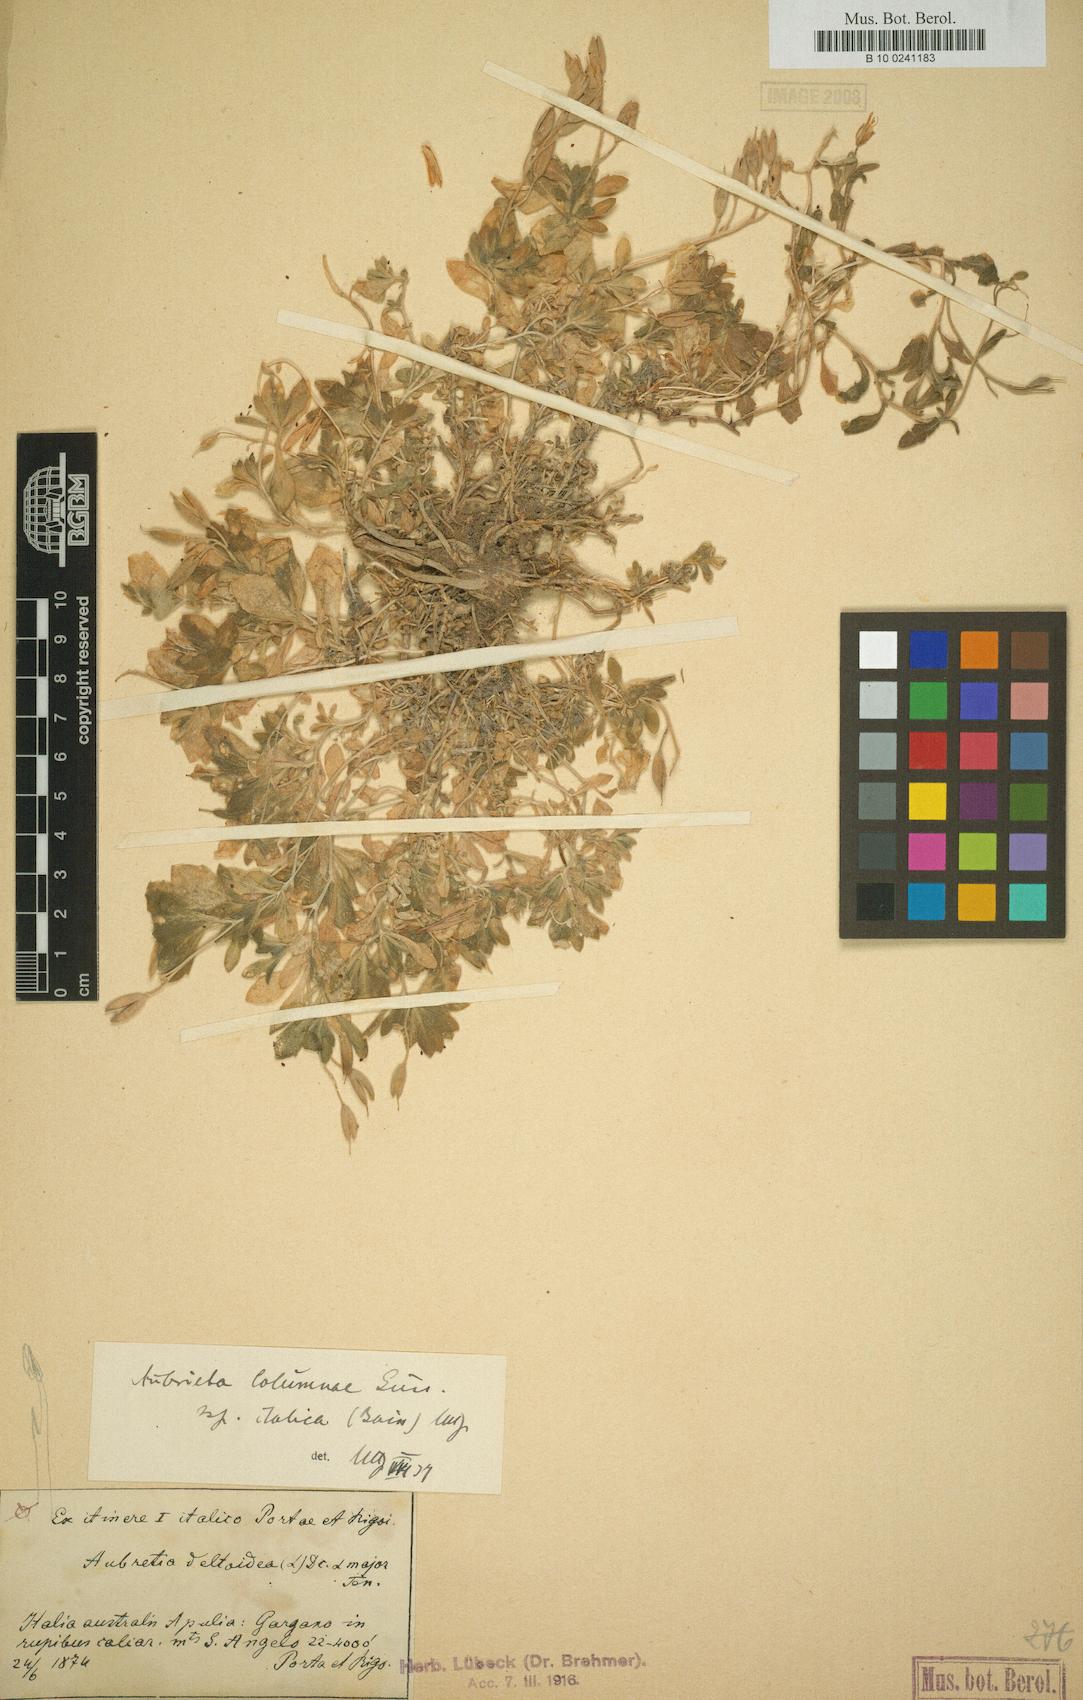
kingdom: Plantae
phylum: Tracheophyta
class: Magnoliopsida
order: Brassicales
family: Brassicaceae
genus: Aubrieta
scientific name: Aubrieta columnae
